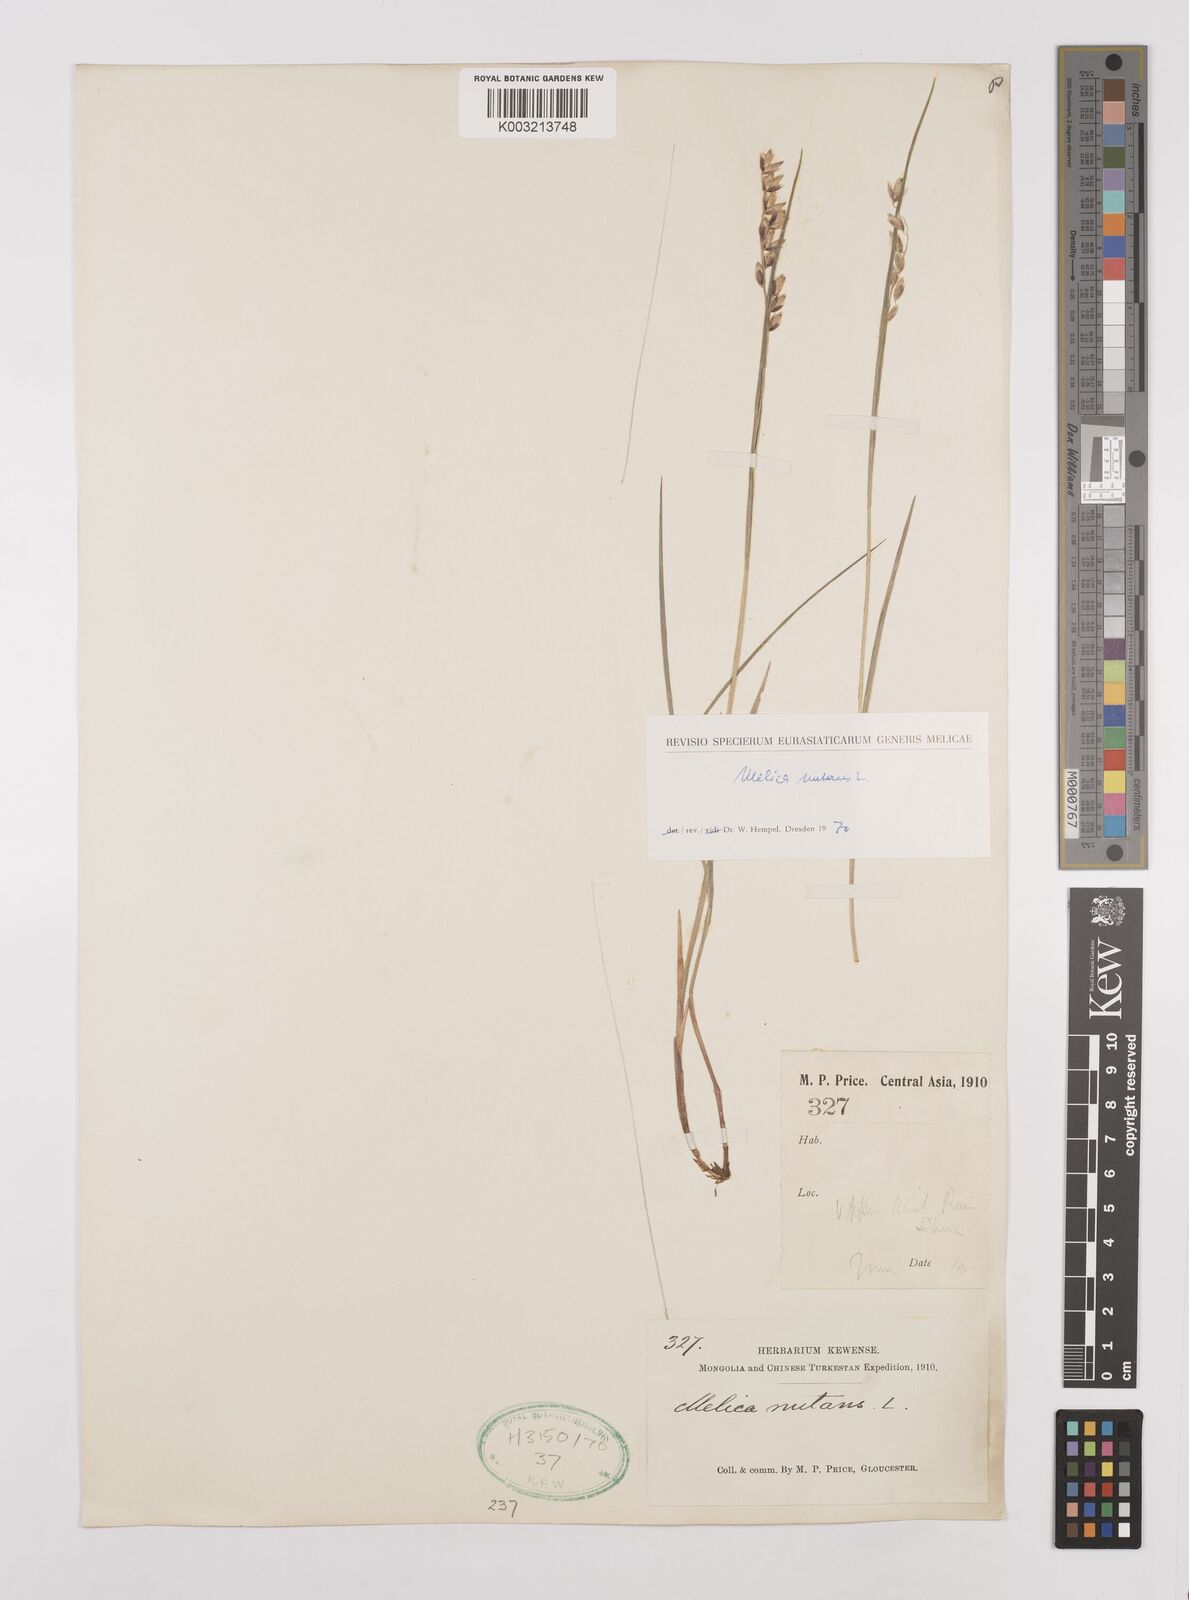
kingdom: Plantae
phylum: Tracheophyta
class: Liliopsida
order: Poales
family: Poaceae
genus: Melica
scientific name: Melica
